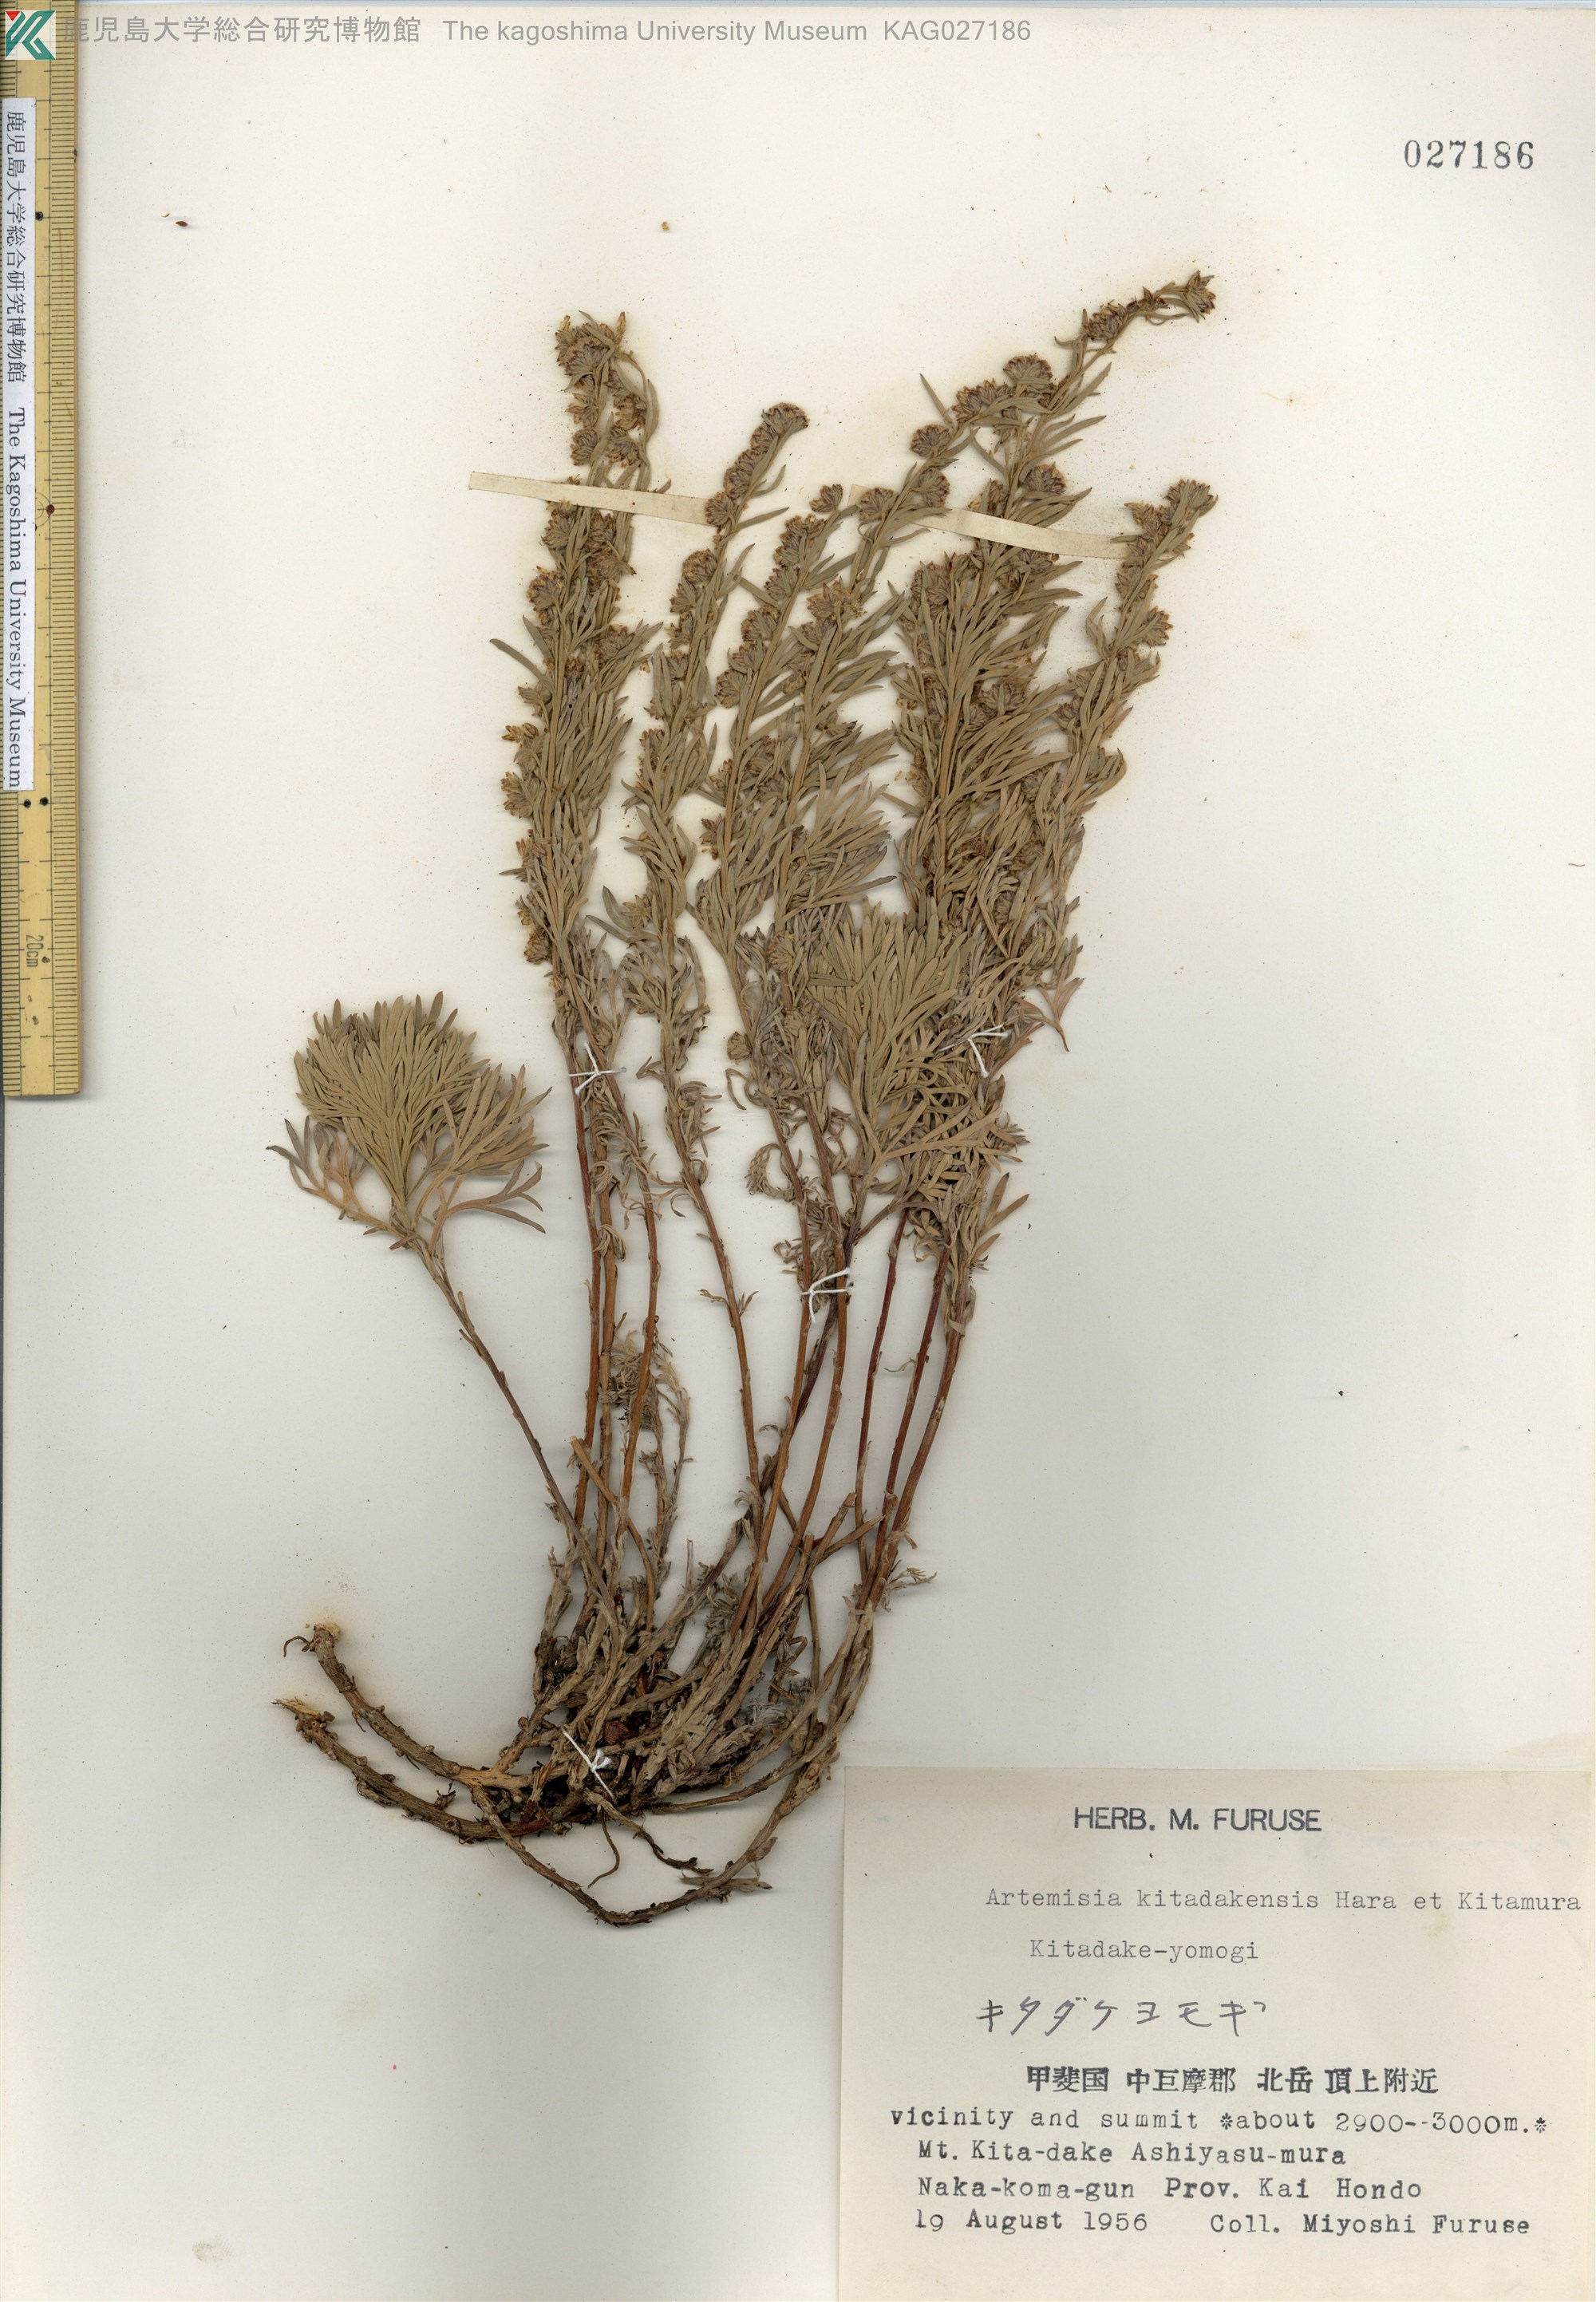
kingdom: Plantae
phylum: Tracheophyta
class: Magnoliopsida
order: Asterales
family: Asteraceae
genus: Artemisia
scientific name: Artemisia kitadakensis
